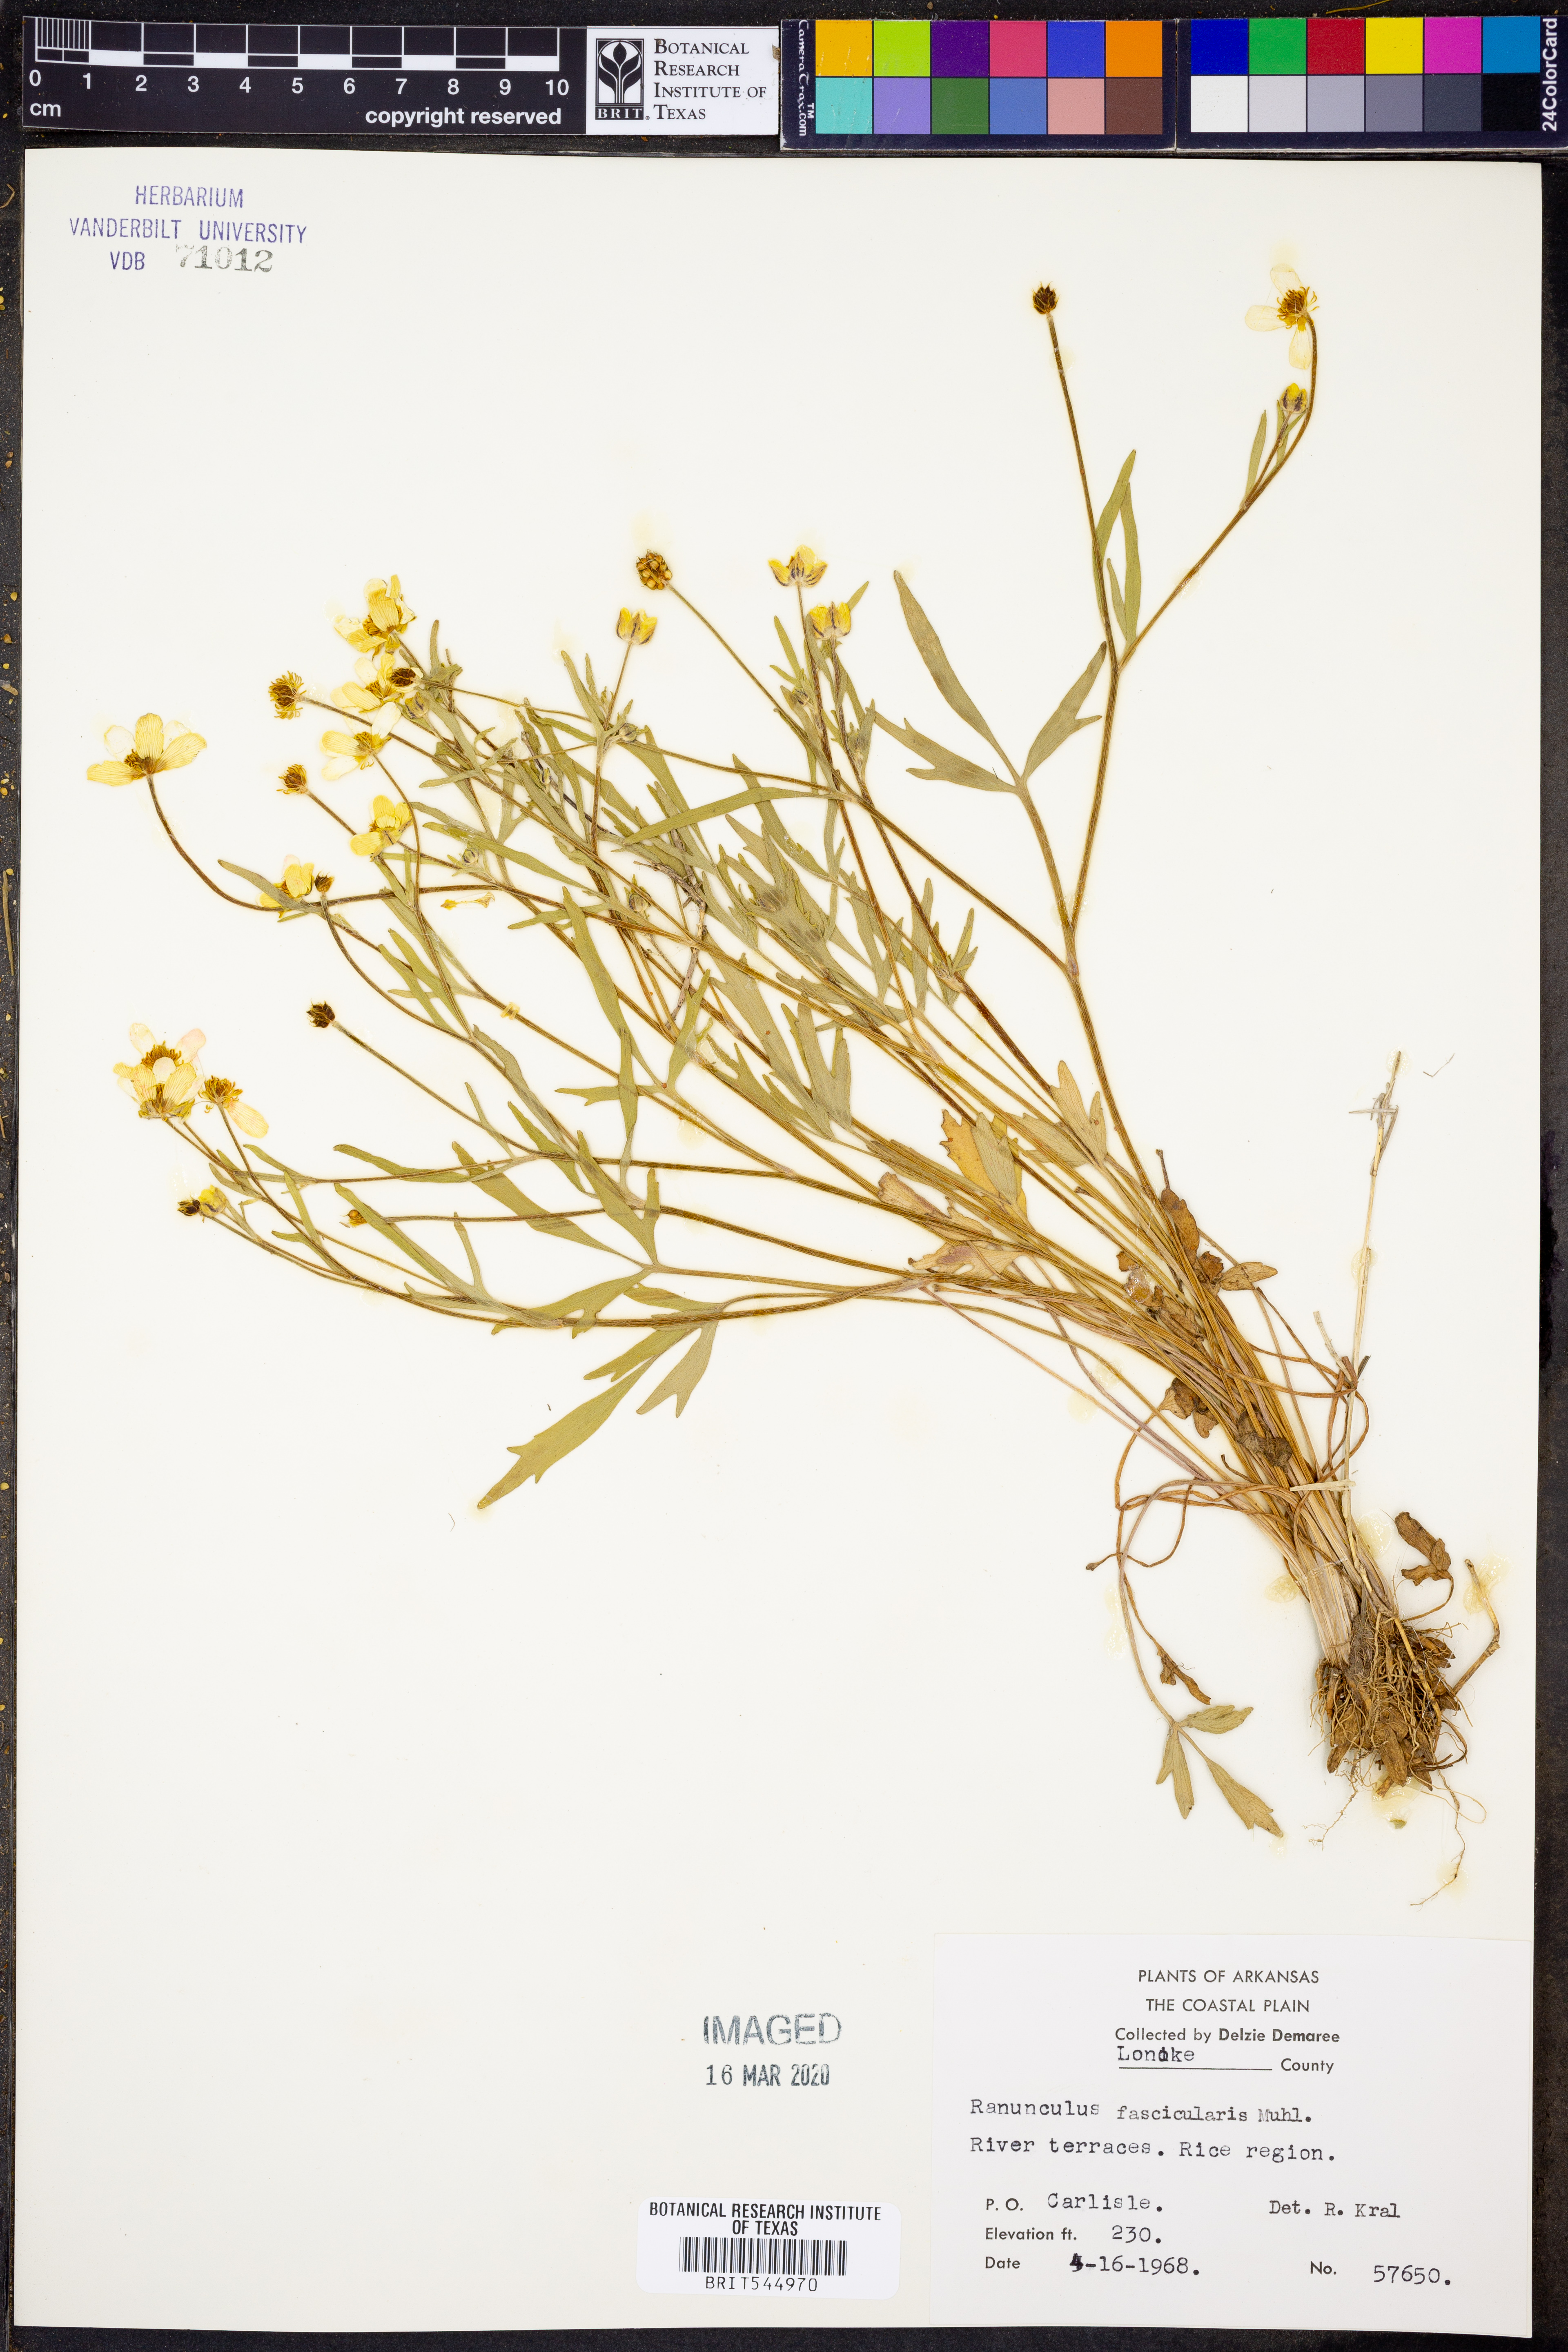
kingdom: Plantae
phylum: Tracheophyta
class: Magnoliopsida
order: Ranunculales
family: Ranunculaceae
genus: Ranunculus
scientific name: Ranunculus fascicularis
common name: Early buttercup
